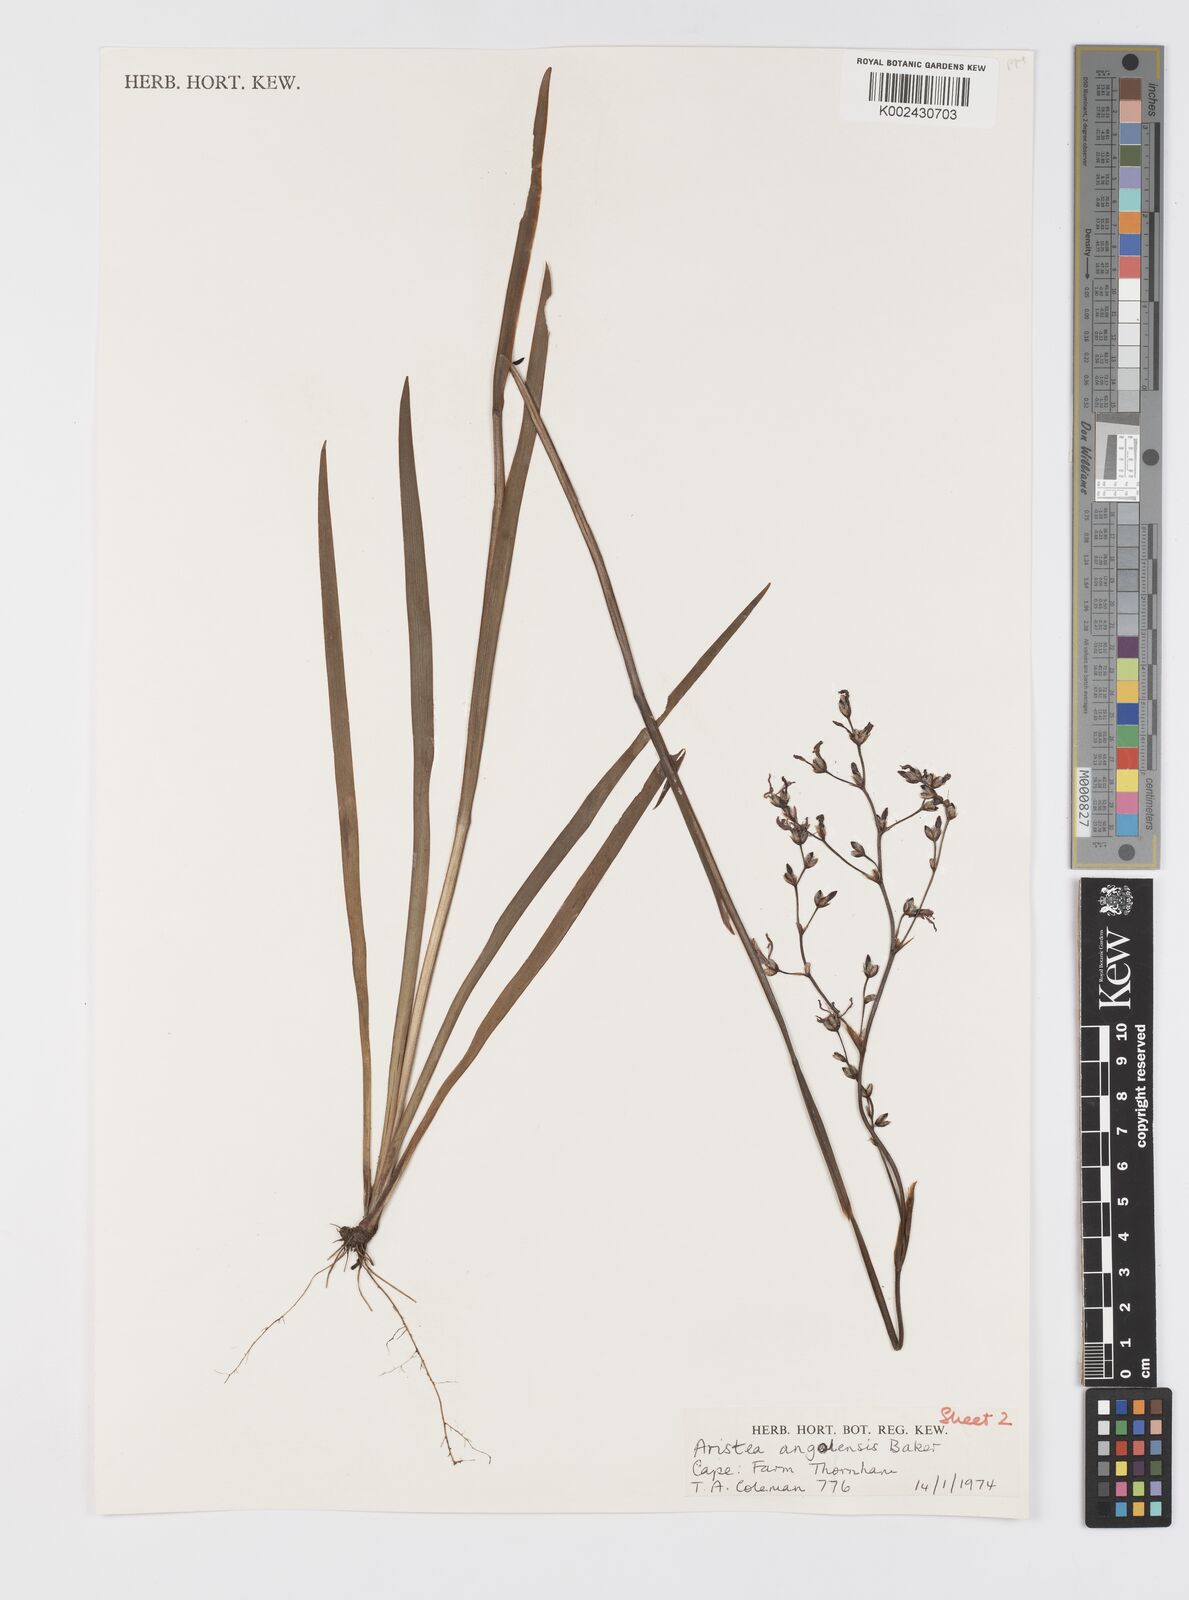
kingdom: Plantae
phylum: Tracheophyta
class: Liliopsida
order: Asparagales
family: Iridaceae
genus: Aristea
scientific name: Aristea bakeri
